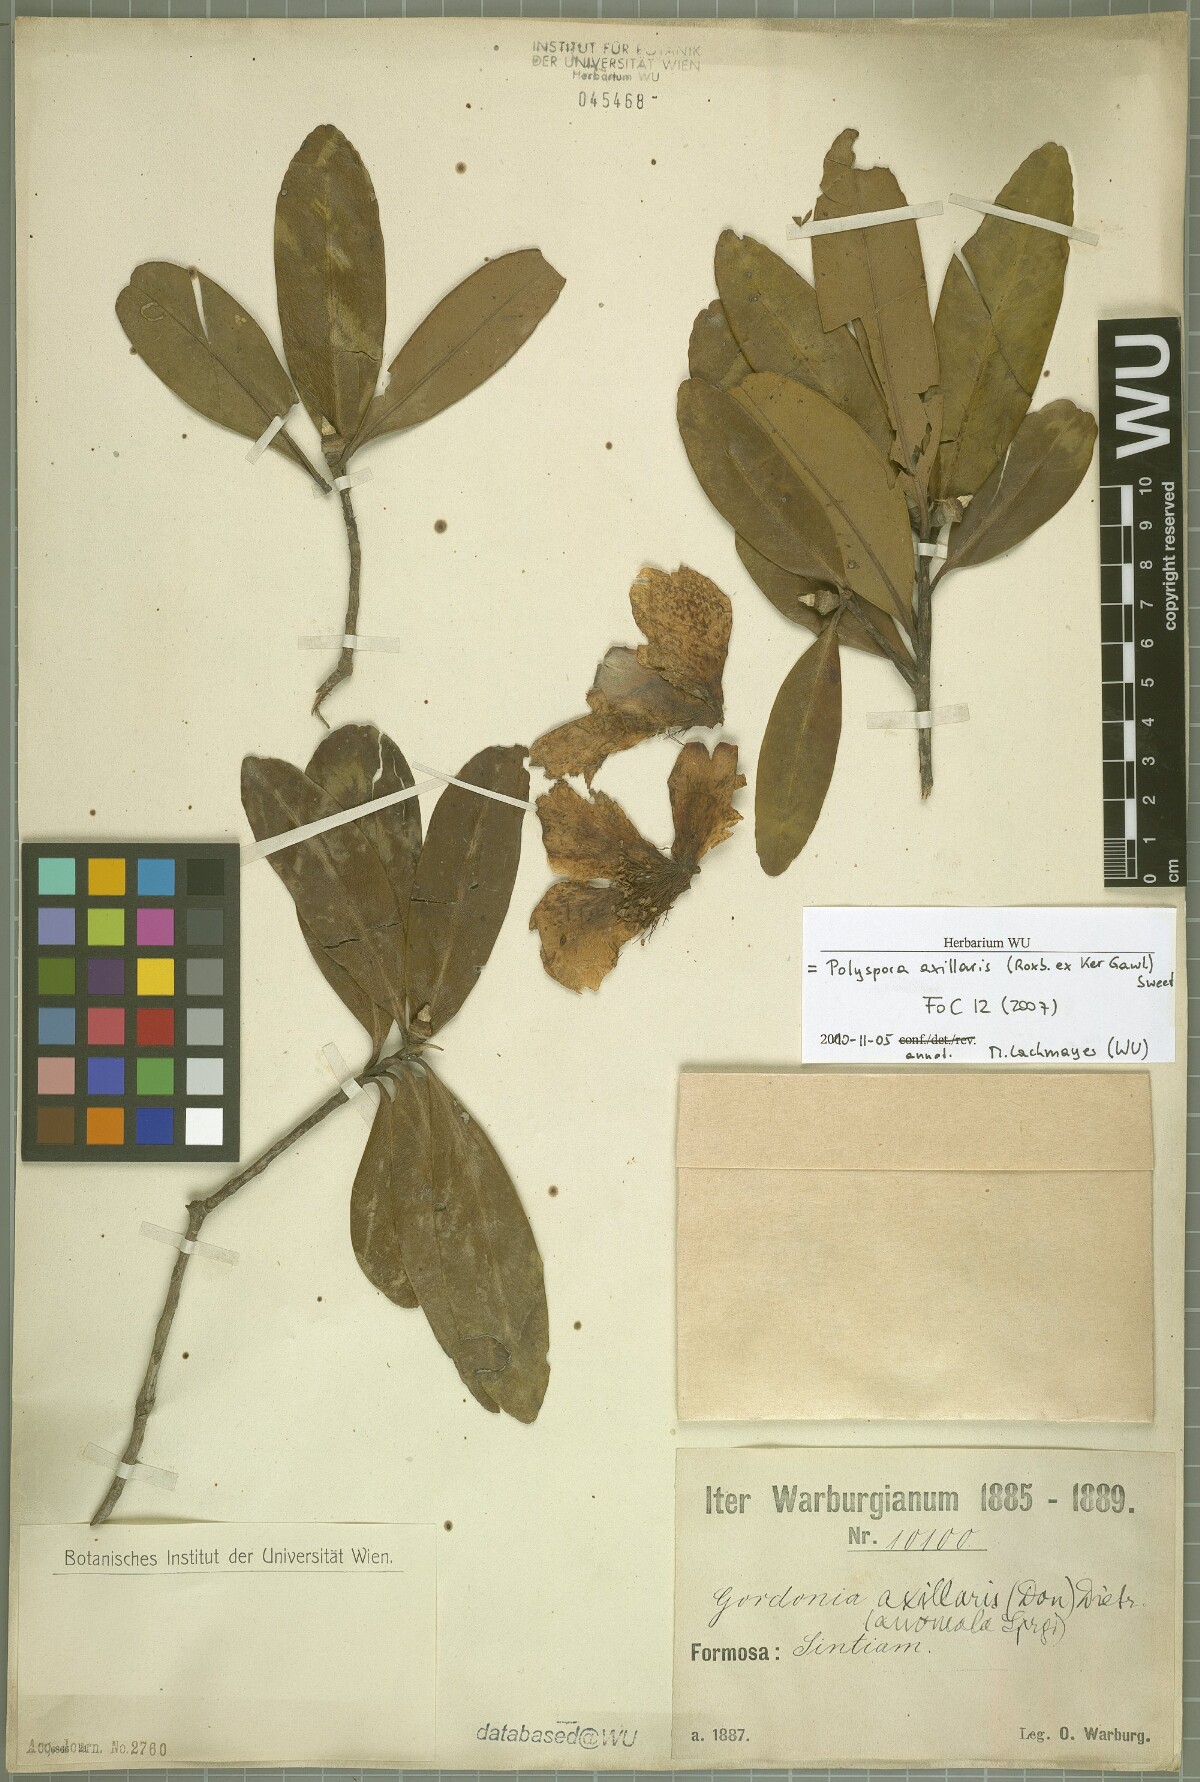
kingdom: Plantae
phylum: Tracheophyta
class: Magnoliopsida
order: Ericales
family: Theaceae
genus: Polyspora
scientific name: Polyspora axillaris
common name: Fried egg tree
